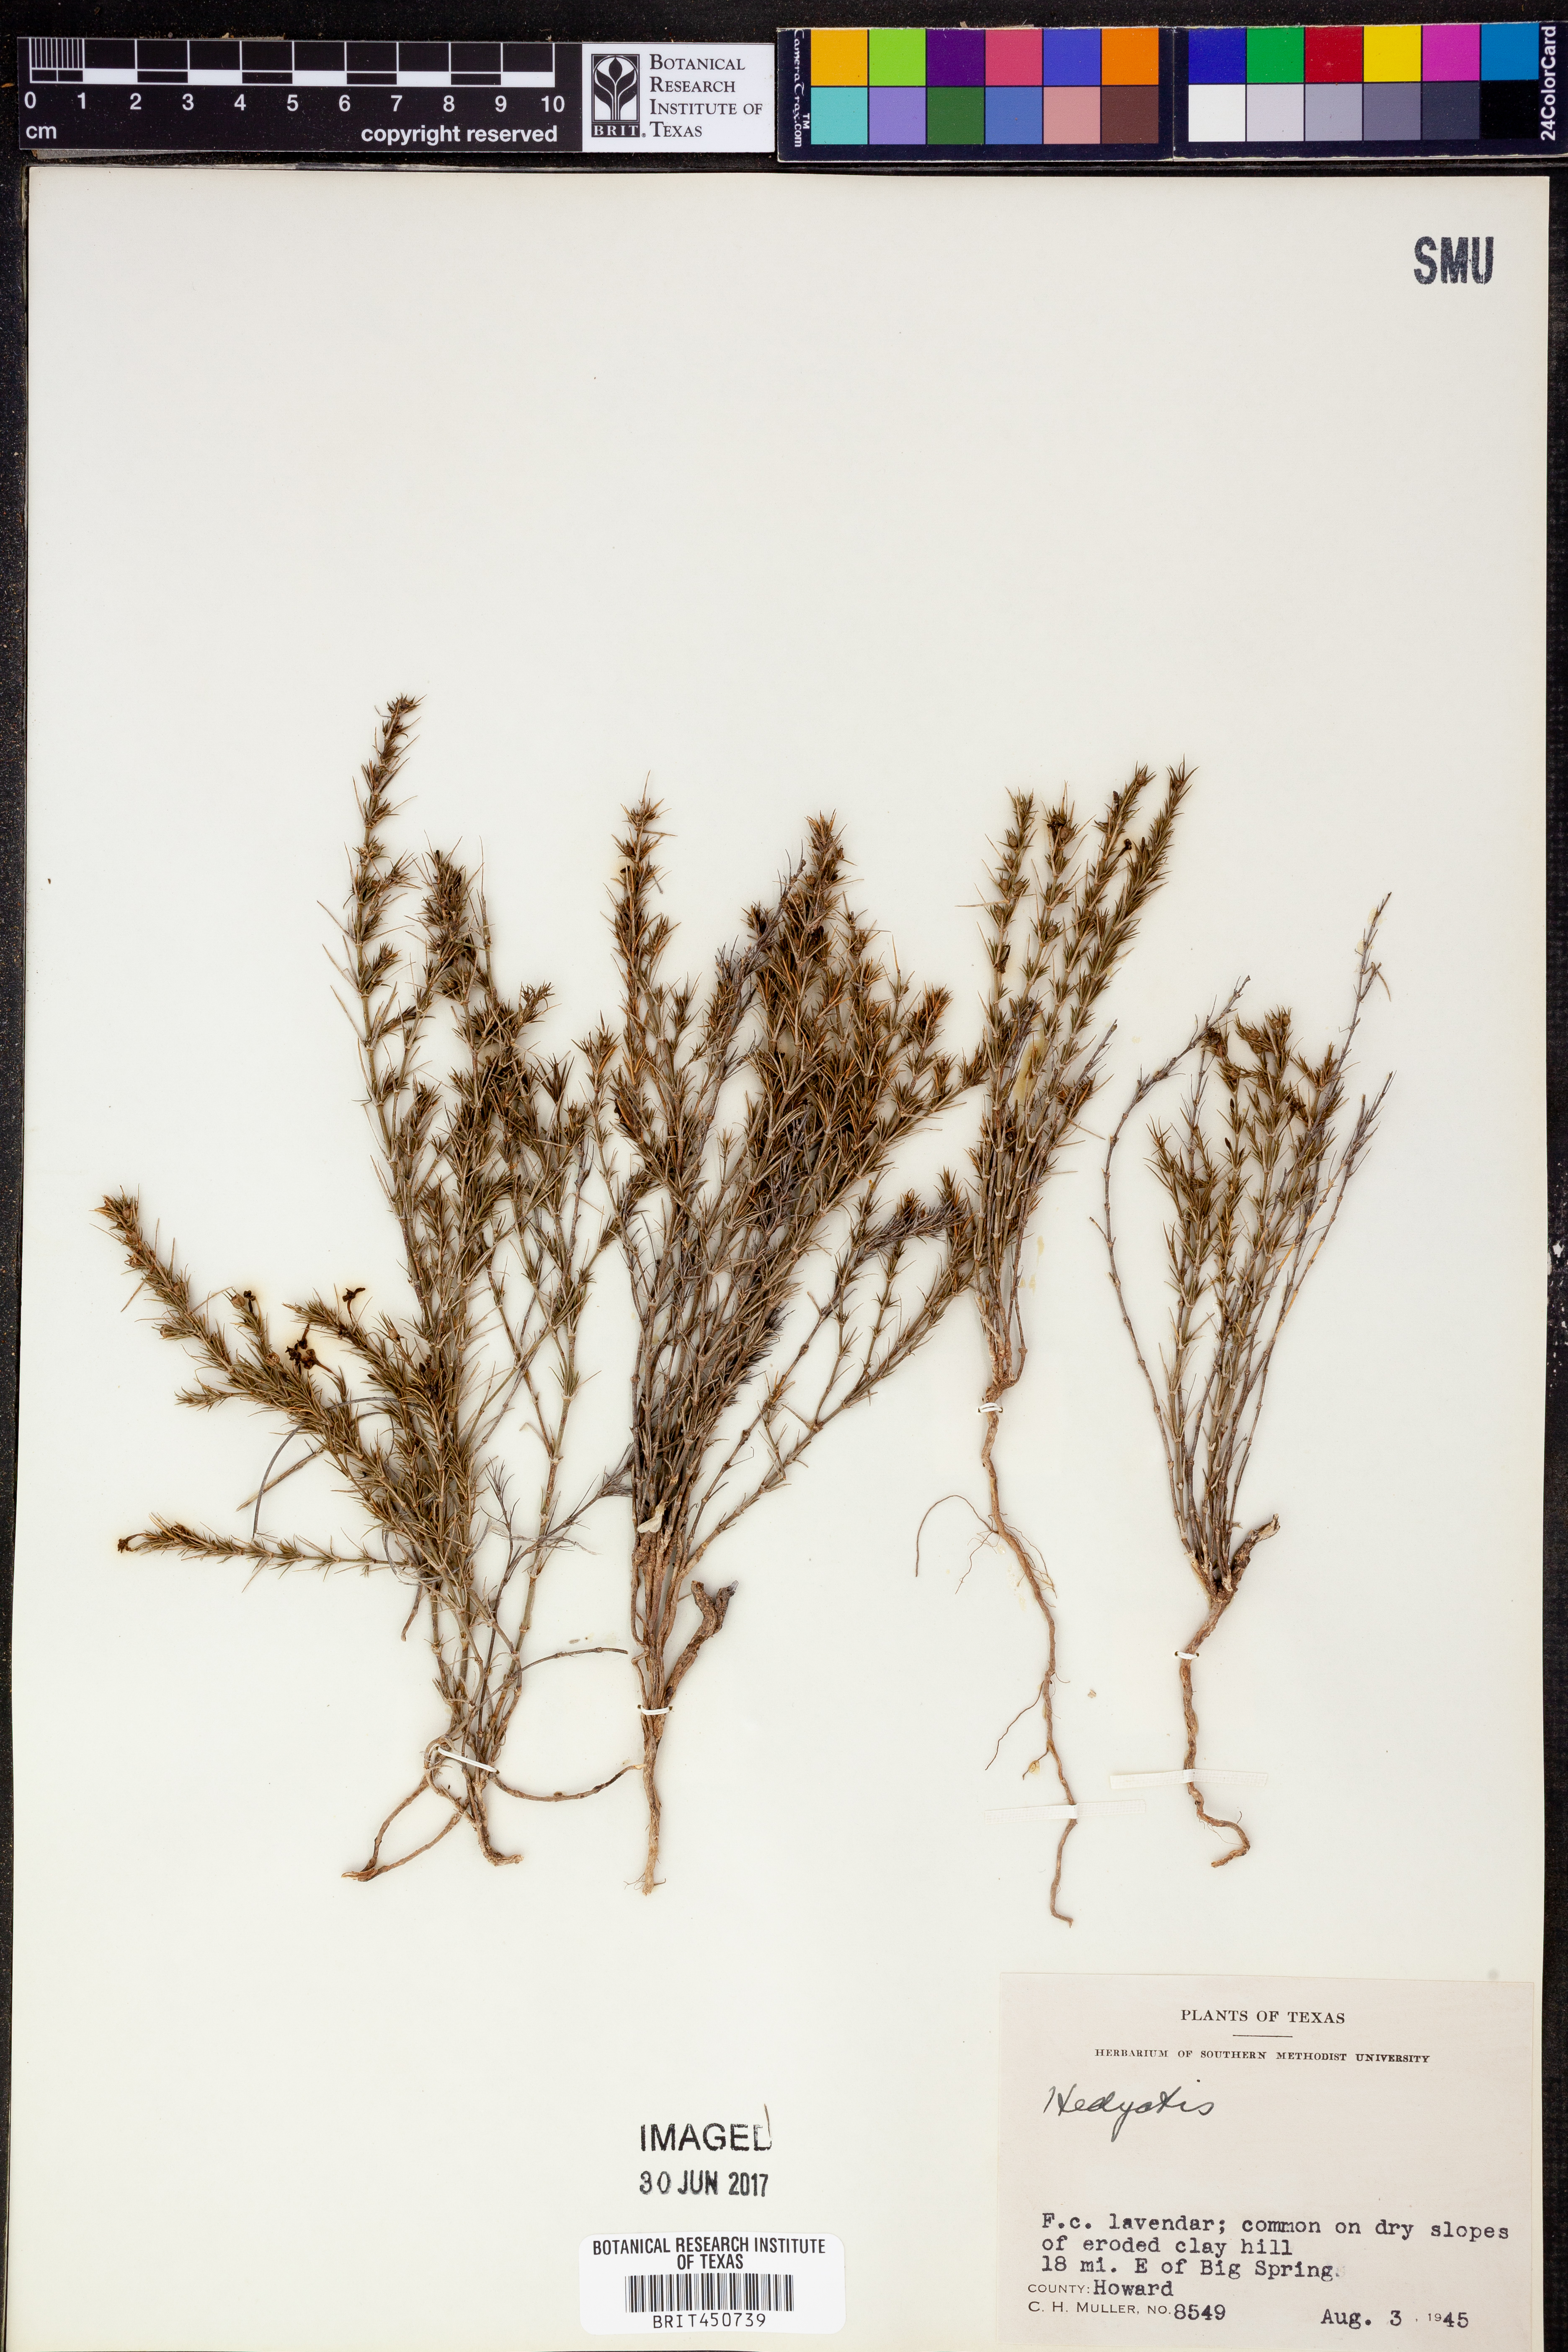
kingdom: Plantae
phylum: Tracheophyta
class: Magnoliopsida
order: Gentianales
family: Rubiaceae
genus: Hedyotis
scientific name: Hedyotis
